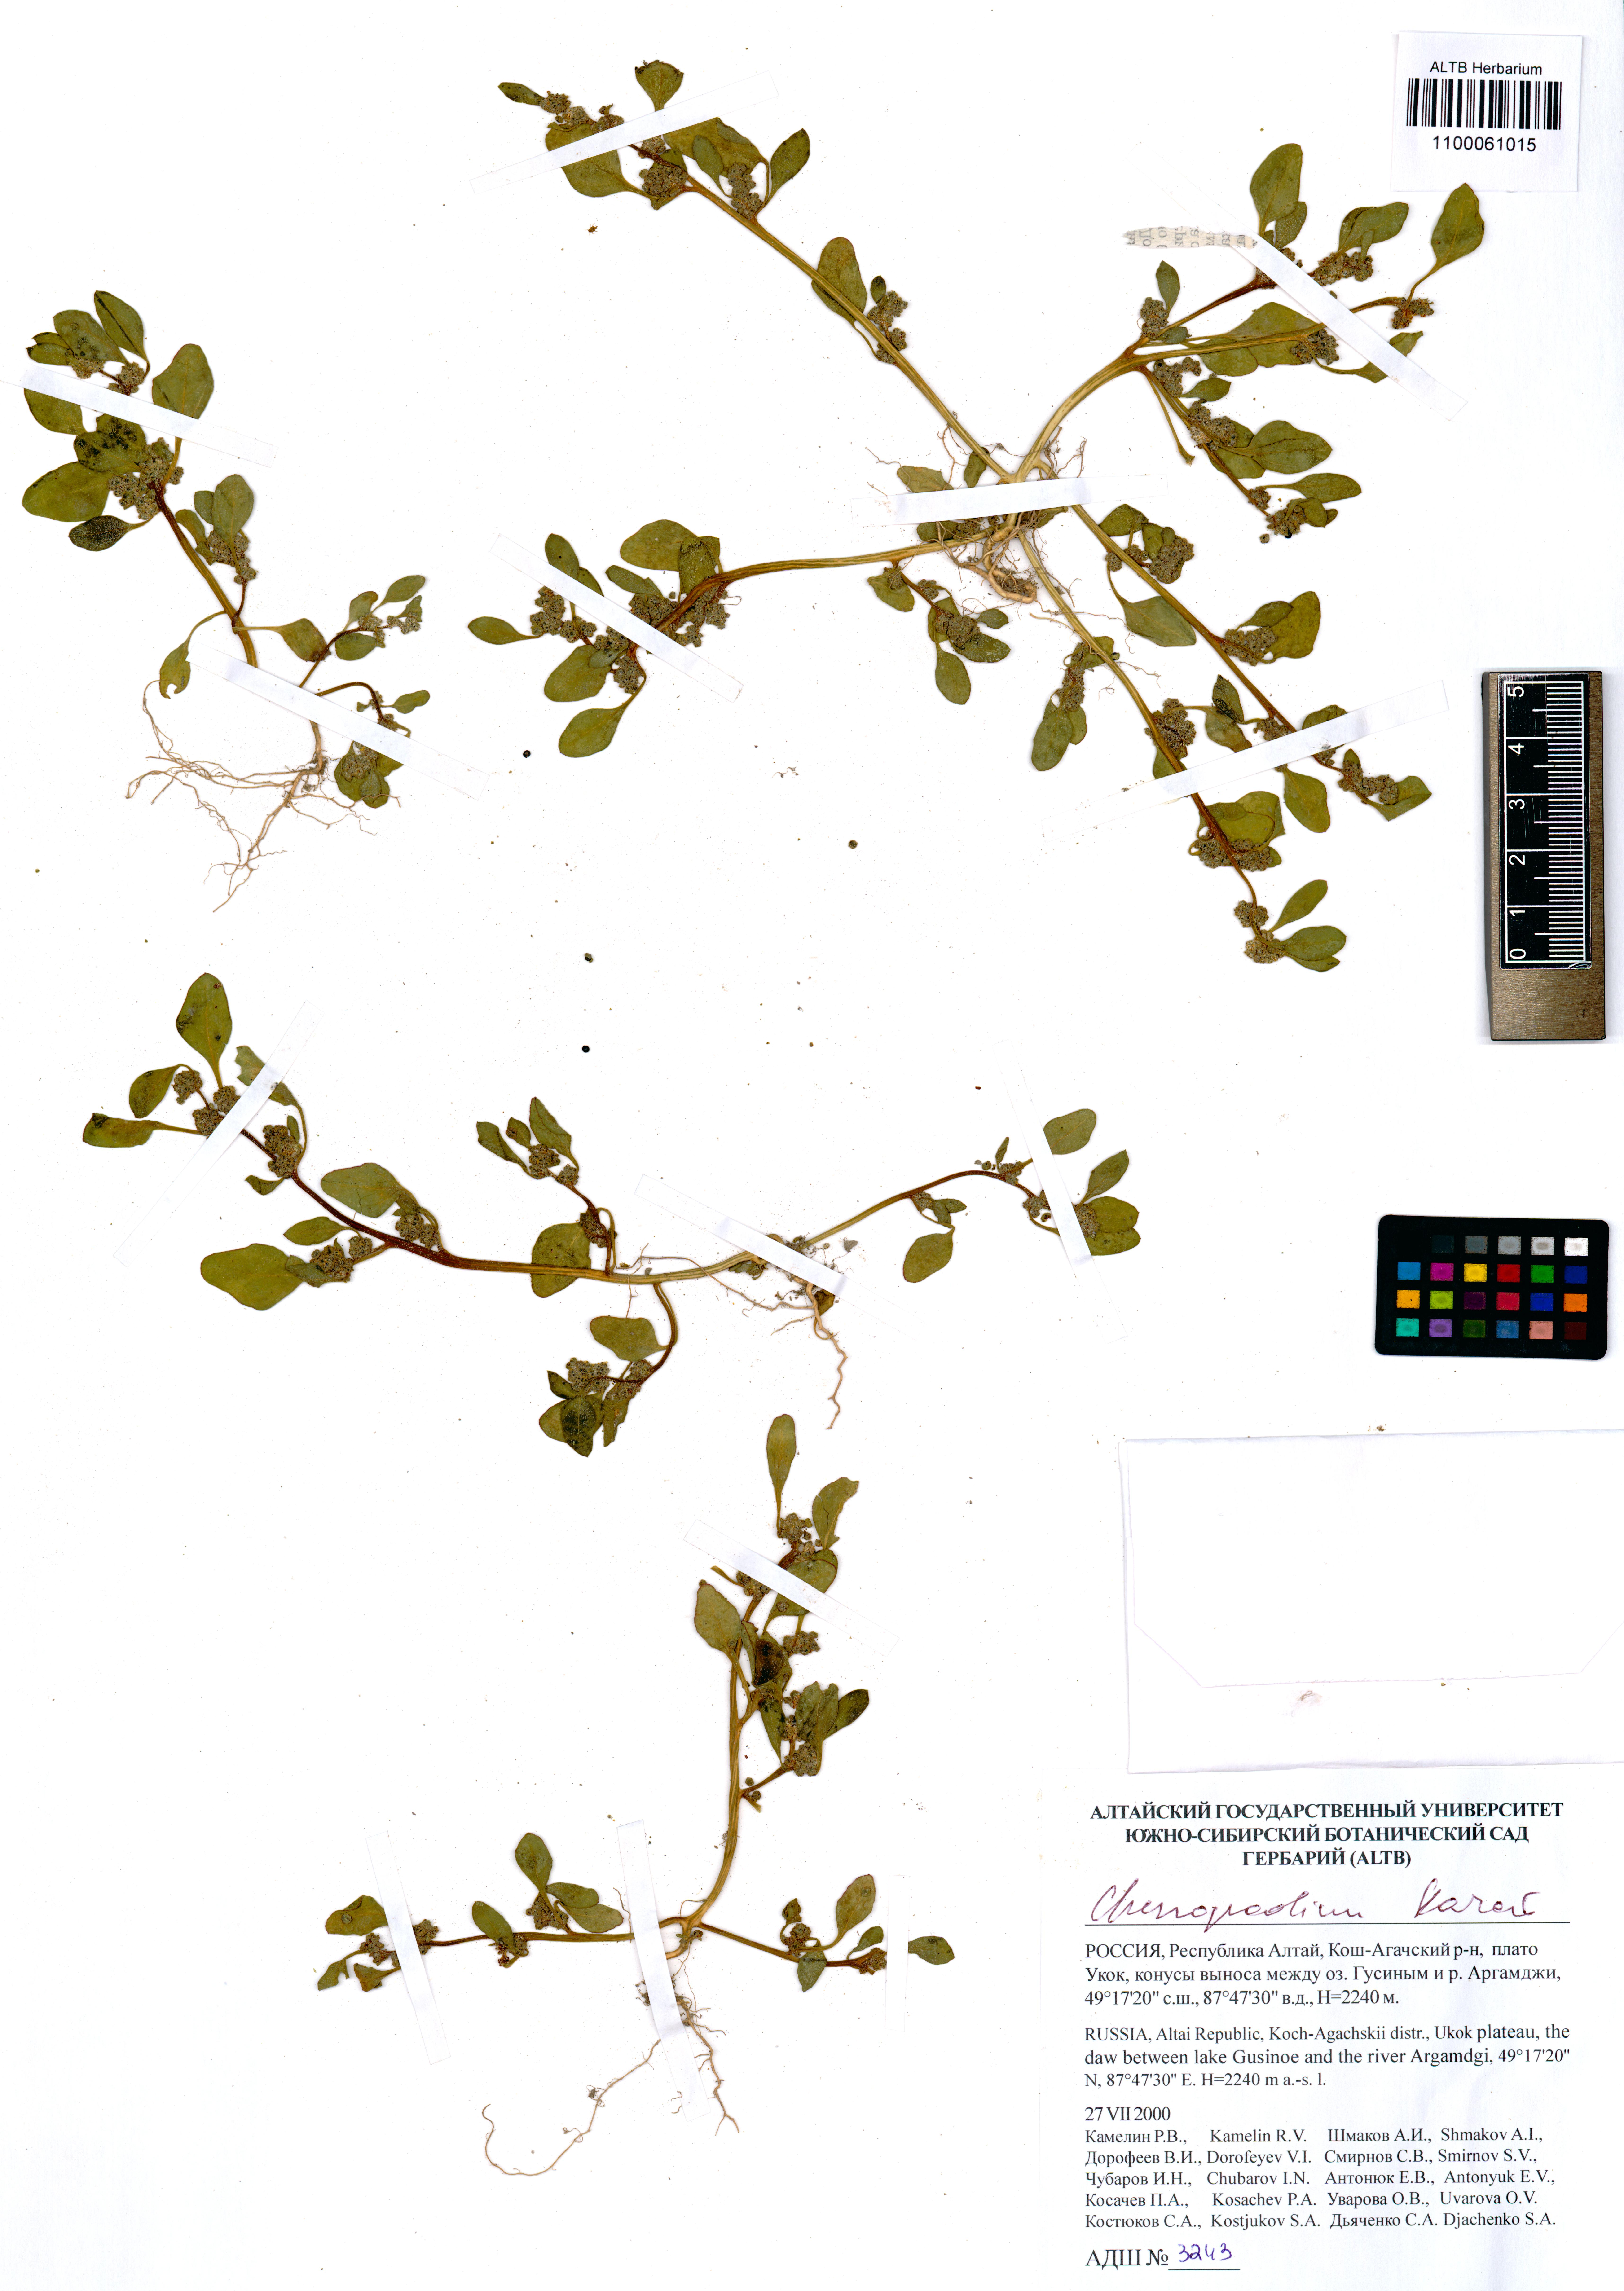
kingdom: Plantae
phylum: Tracheophyta
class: Magnoliopsida
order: Caryophyllales
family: Amaranthaceae
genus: Chenopodium
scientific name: Chenopodium karoi
